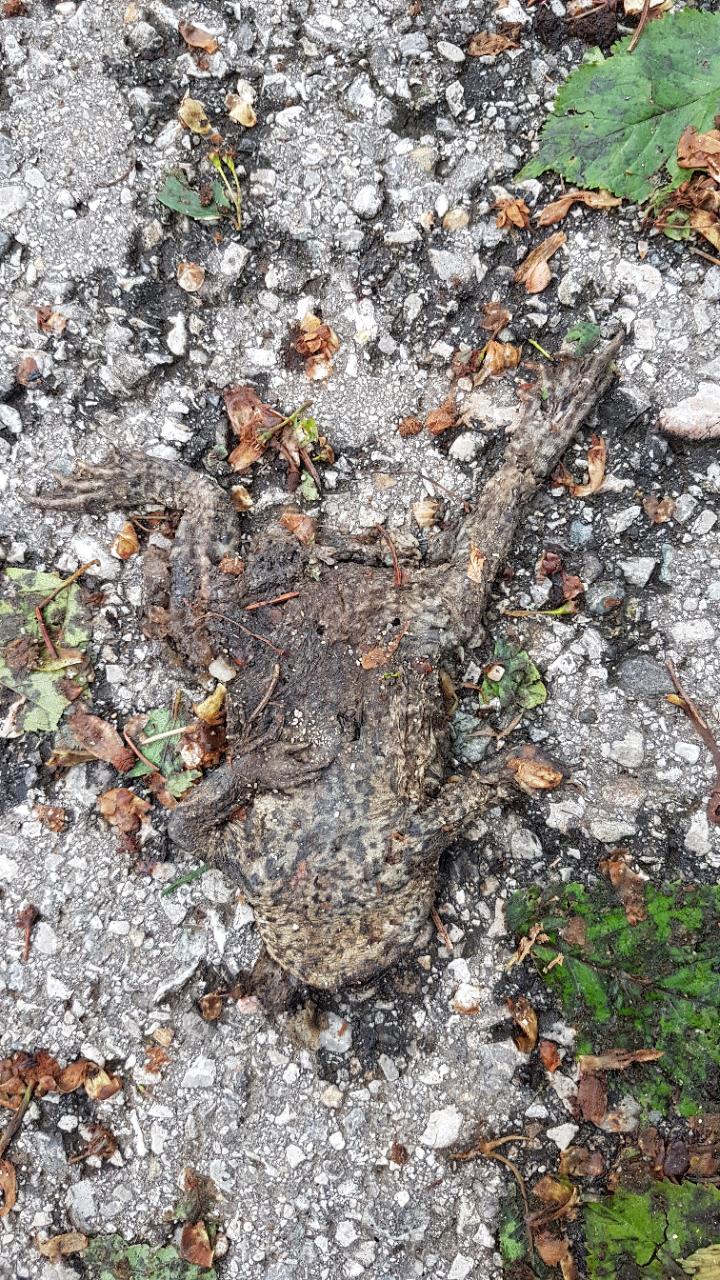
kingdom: Animalia
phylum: Chordata
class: Amphibia
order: Anura
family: Bufonidae
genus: Bufo
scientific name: Bufo bufo
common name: Common toad
